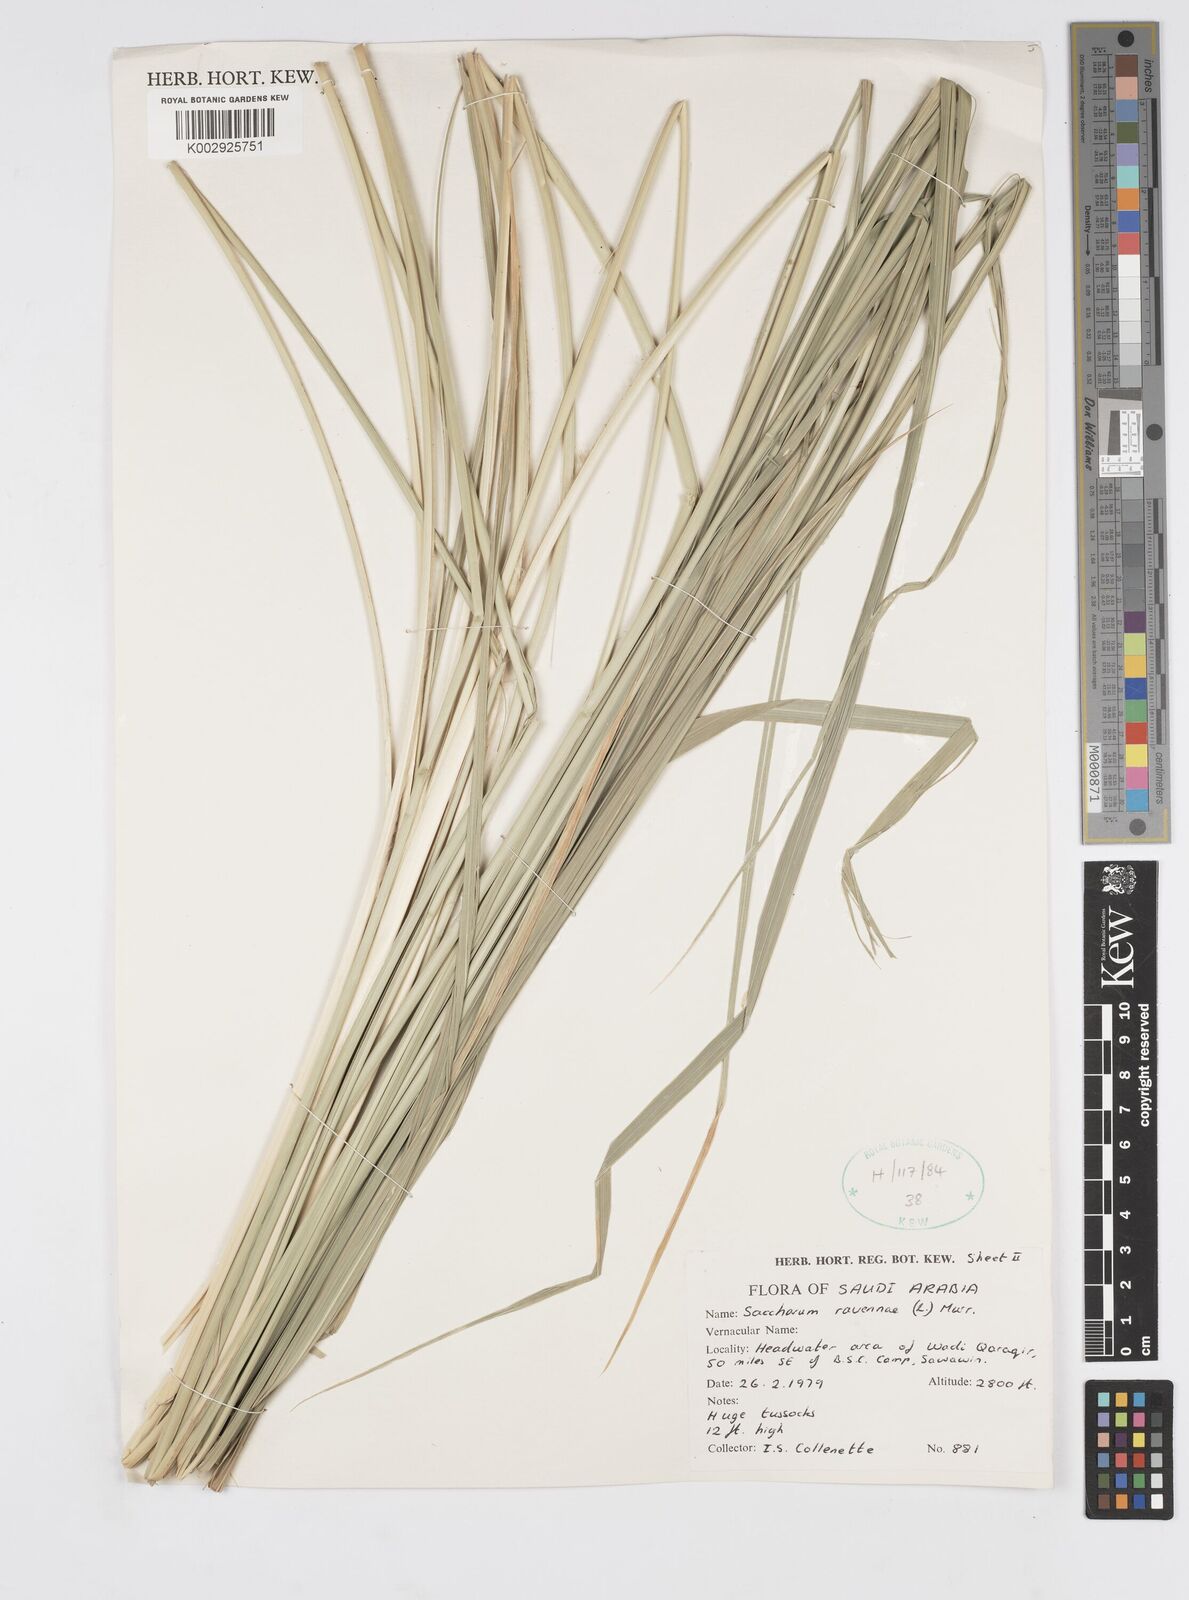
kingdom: Plantae
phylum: Tracheophyta
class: Liliopsida
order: Poales
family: Poaceae
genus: Tripidium
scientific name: Tripidium ravennae
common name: Ravenna grass
